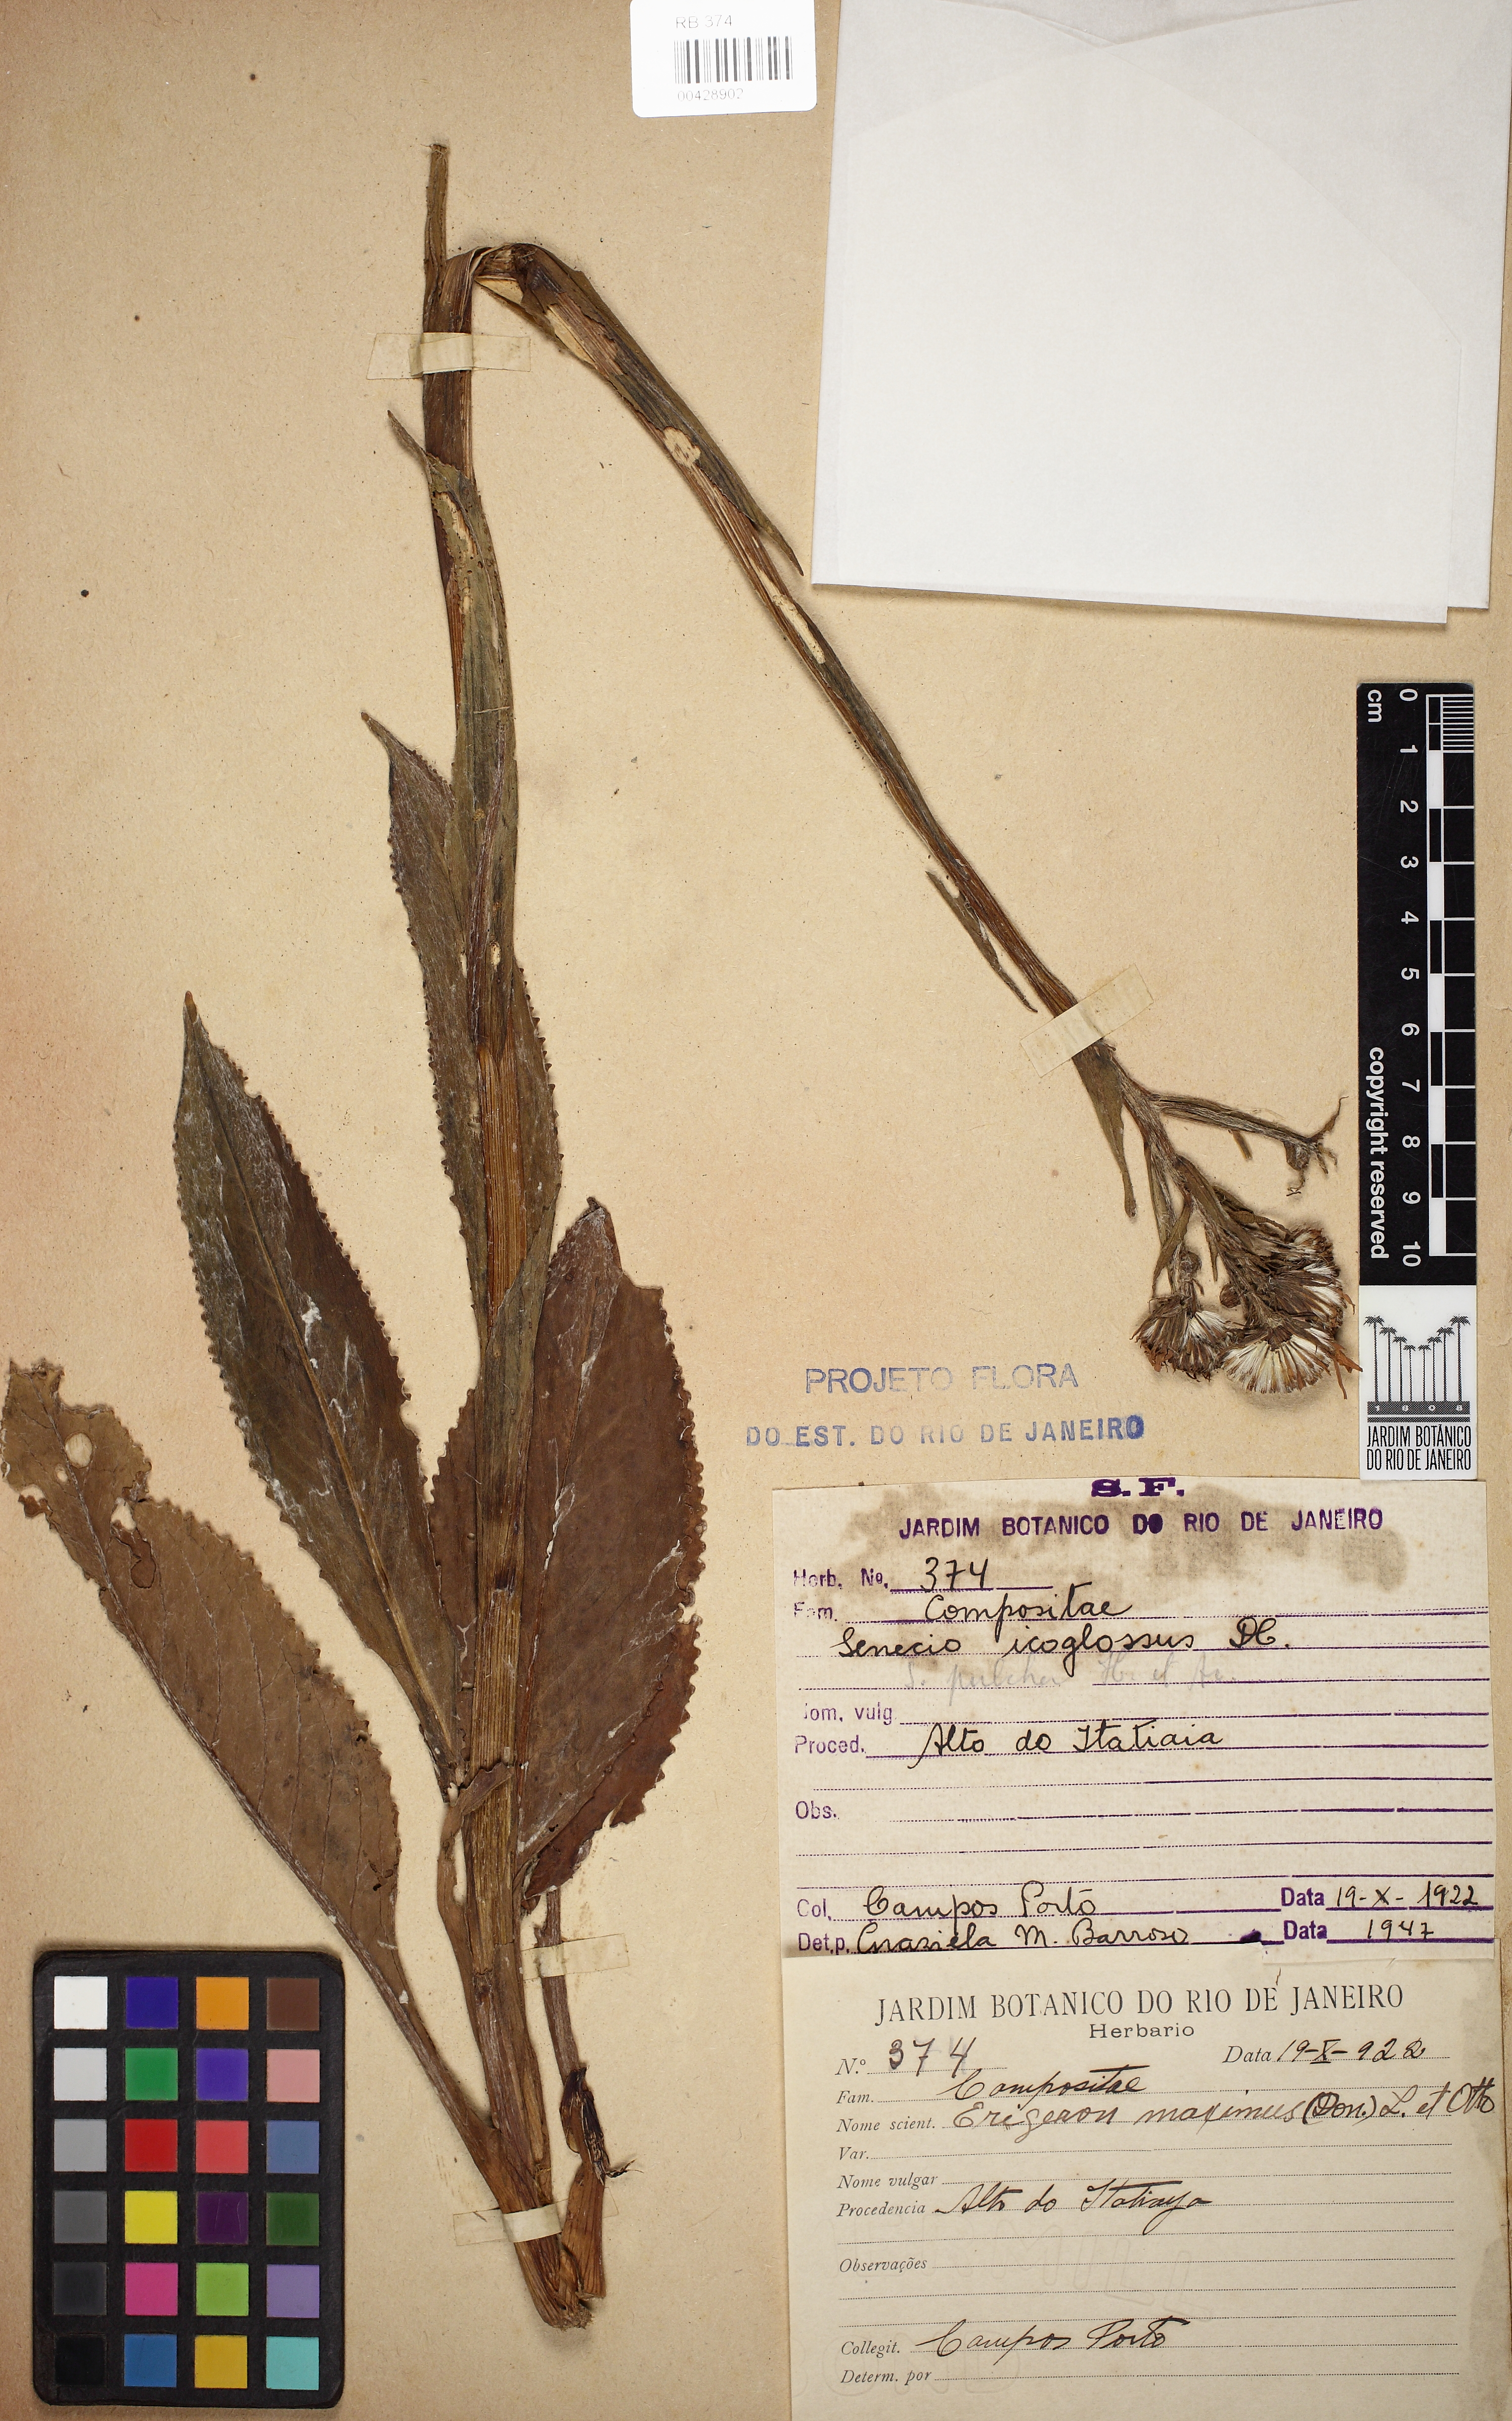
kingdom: Plantae
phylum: Tracheophyta
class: Magnoliopsida
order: Asterales
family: Asteraceae
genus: Senecio
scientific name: Senecio icoglossus
